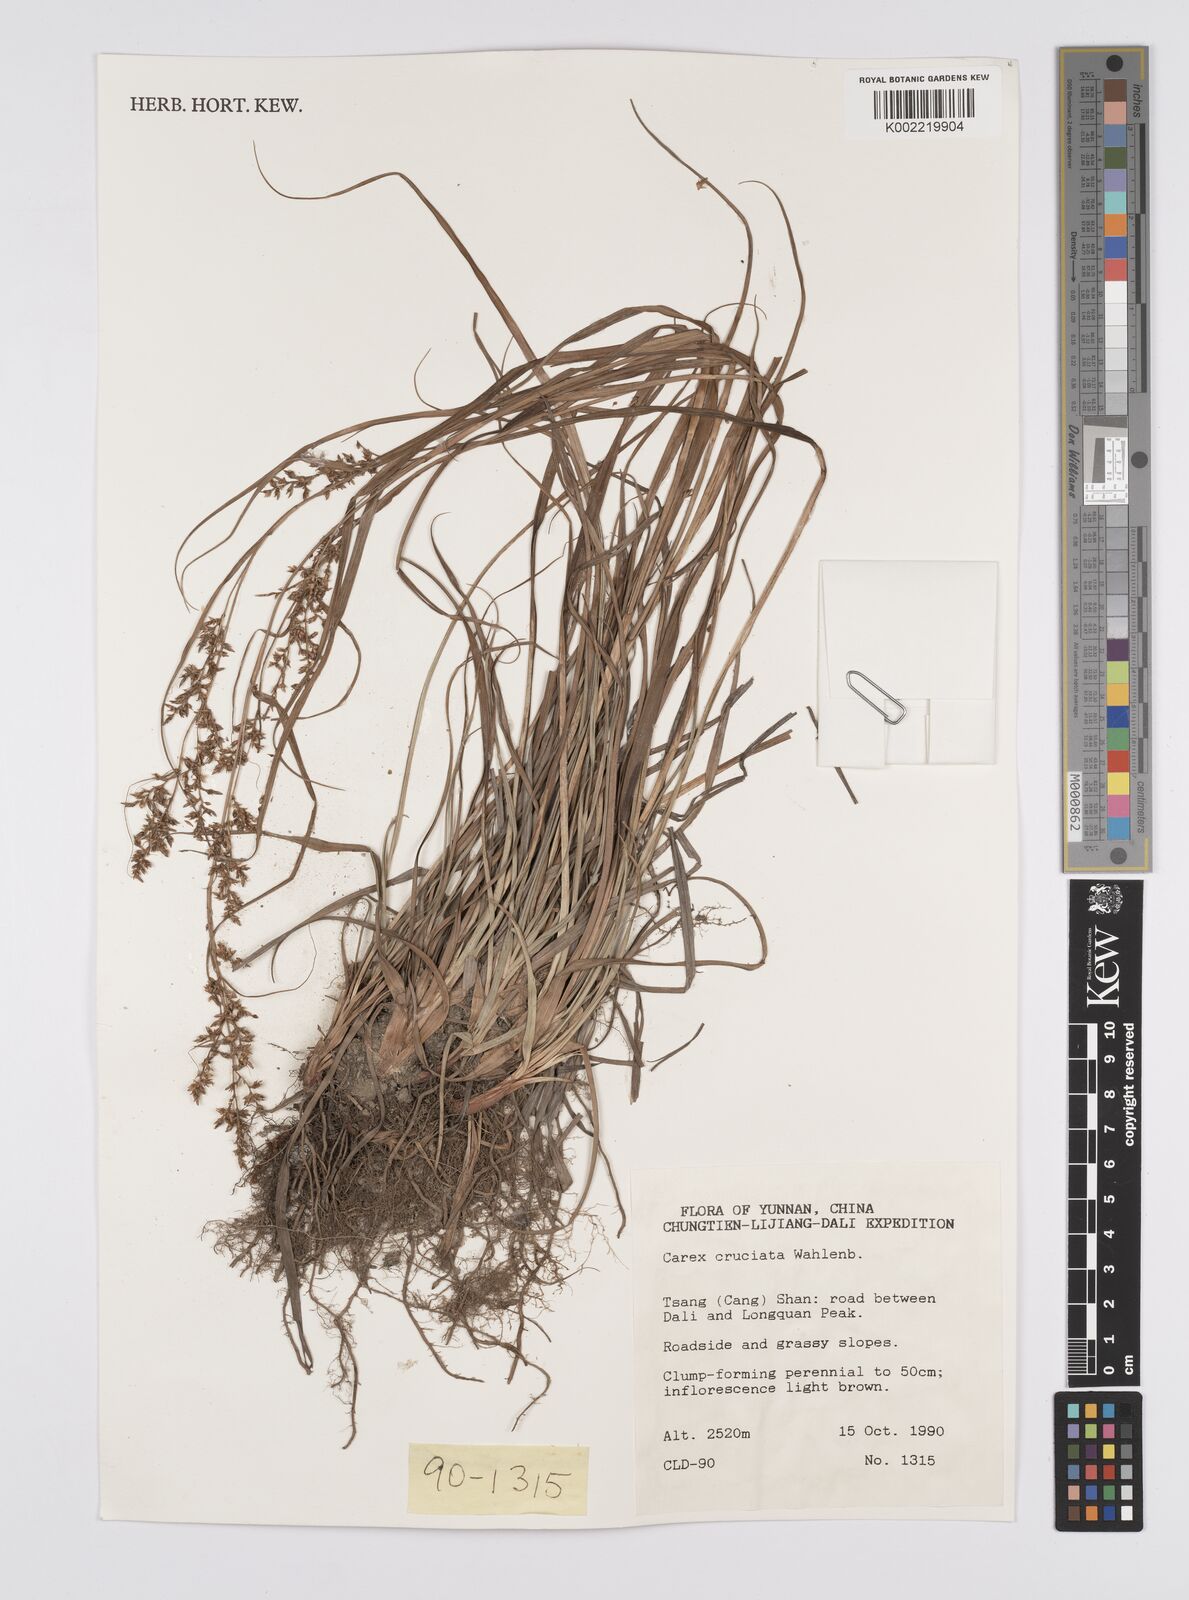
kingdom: Plantae
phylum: Tracheophyta
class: Liliopsida
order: Poales
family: Cyperaceae
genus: Carex
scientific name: Carex cruciata
